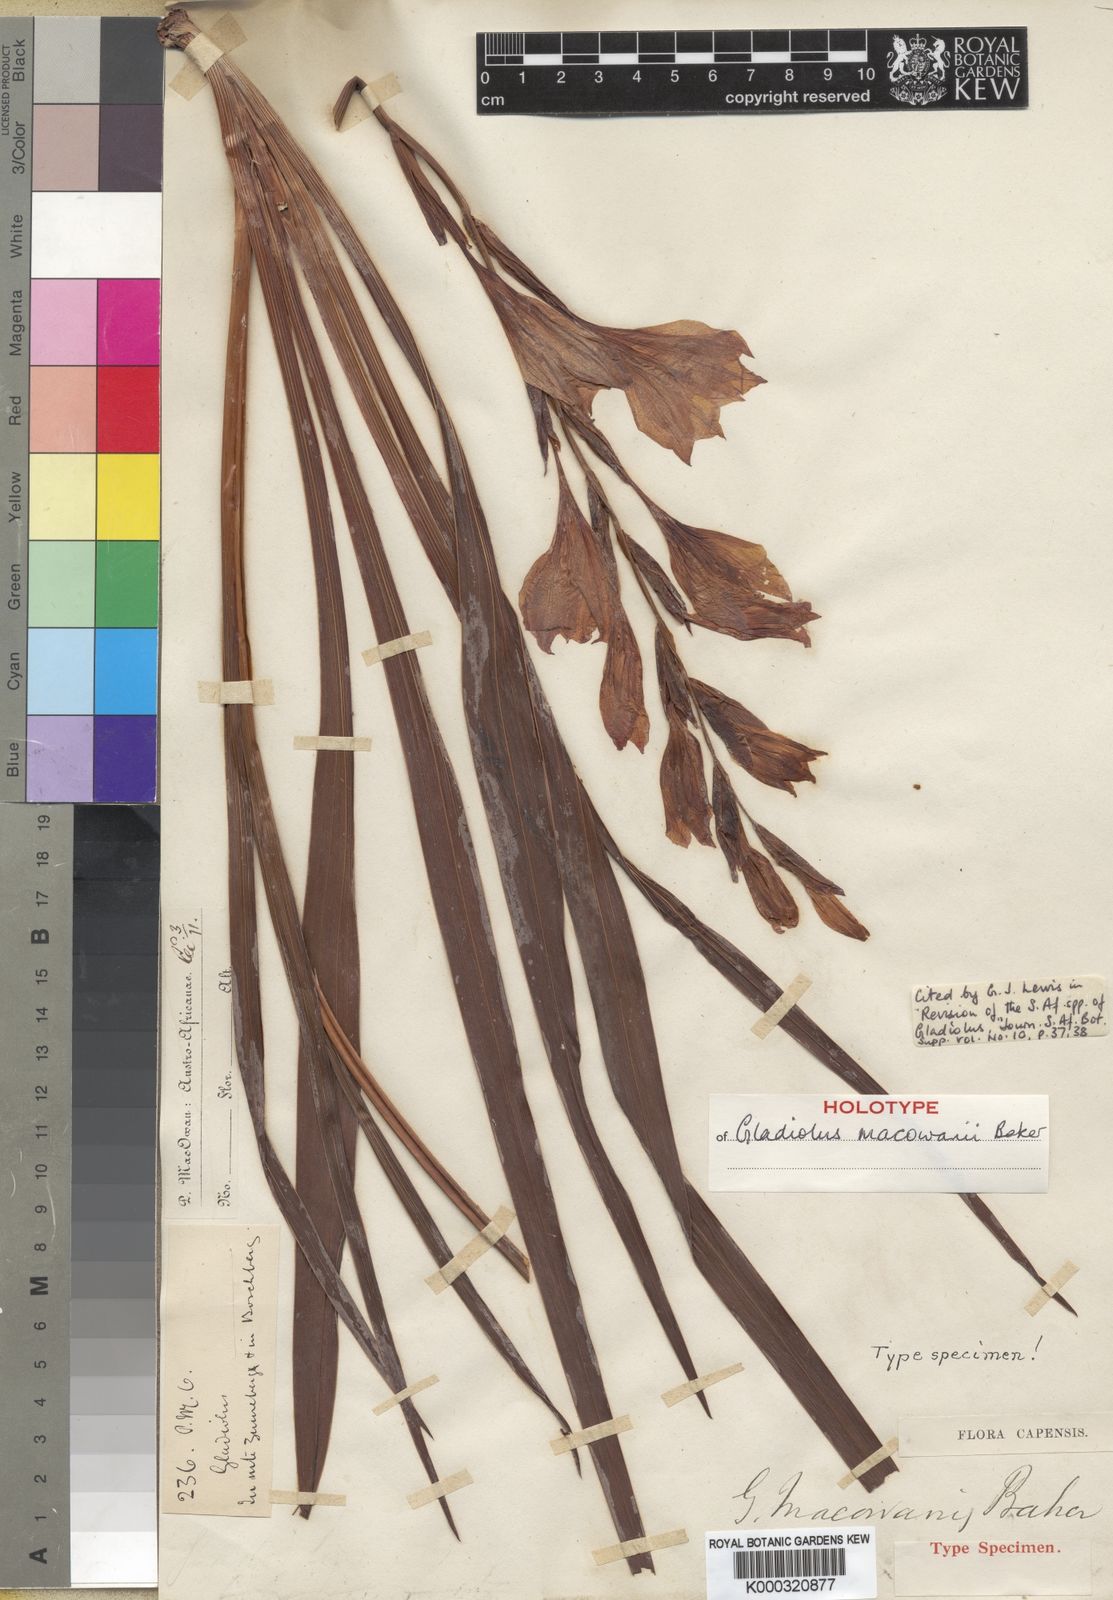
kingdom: Plantae
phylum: Tracheophyta
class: Liliopsida
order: Asparagales
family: Iridaceae
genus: Gladiolus
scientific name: Gladiolus mortonius
